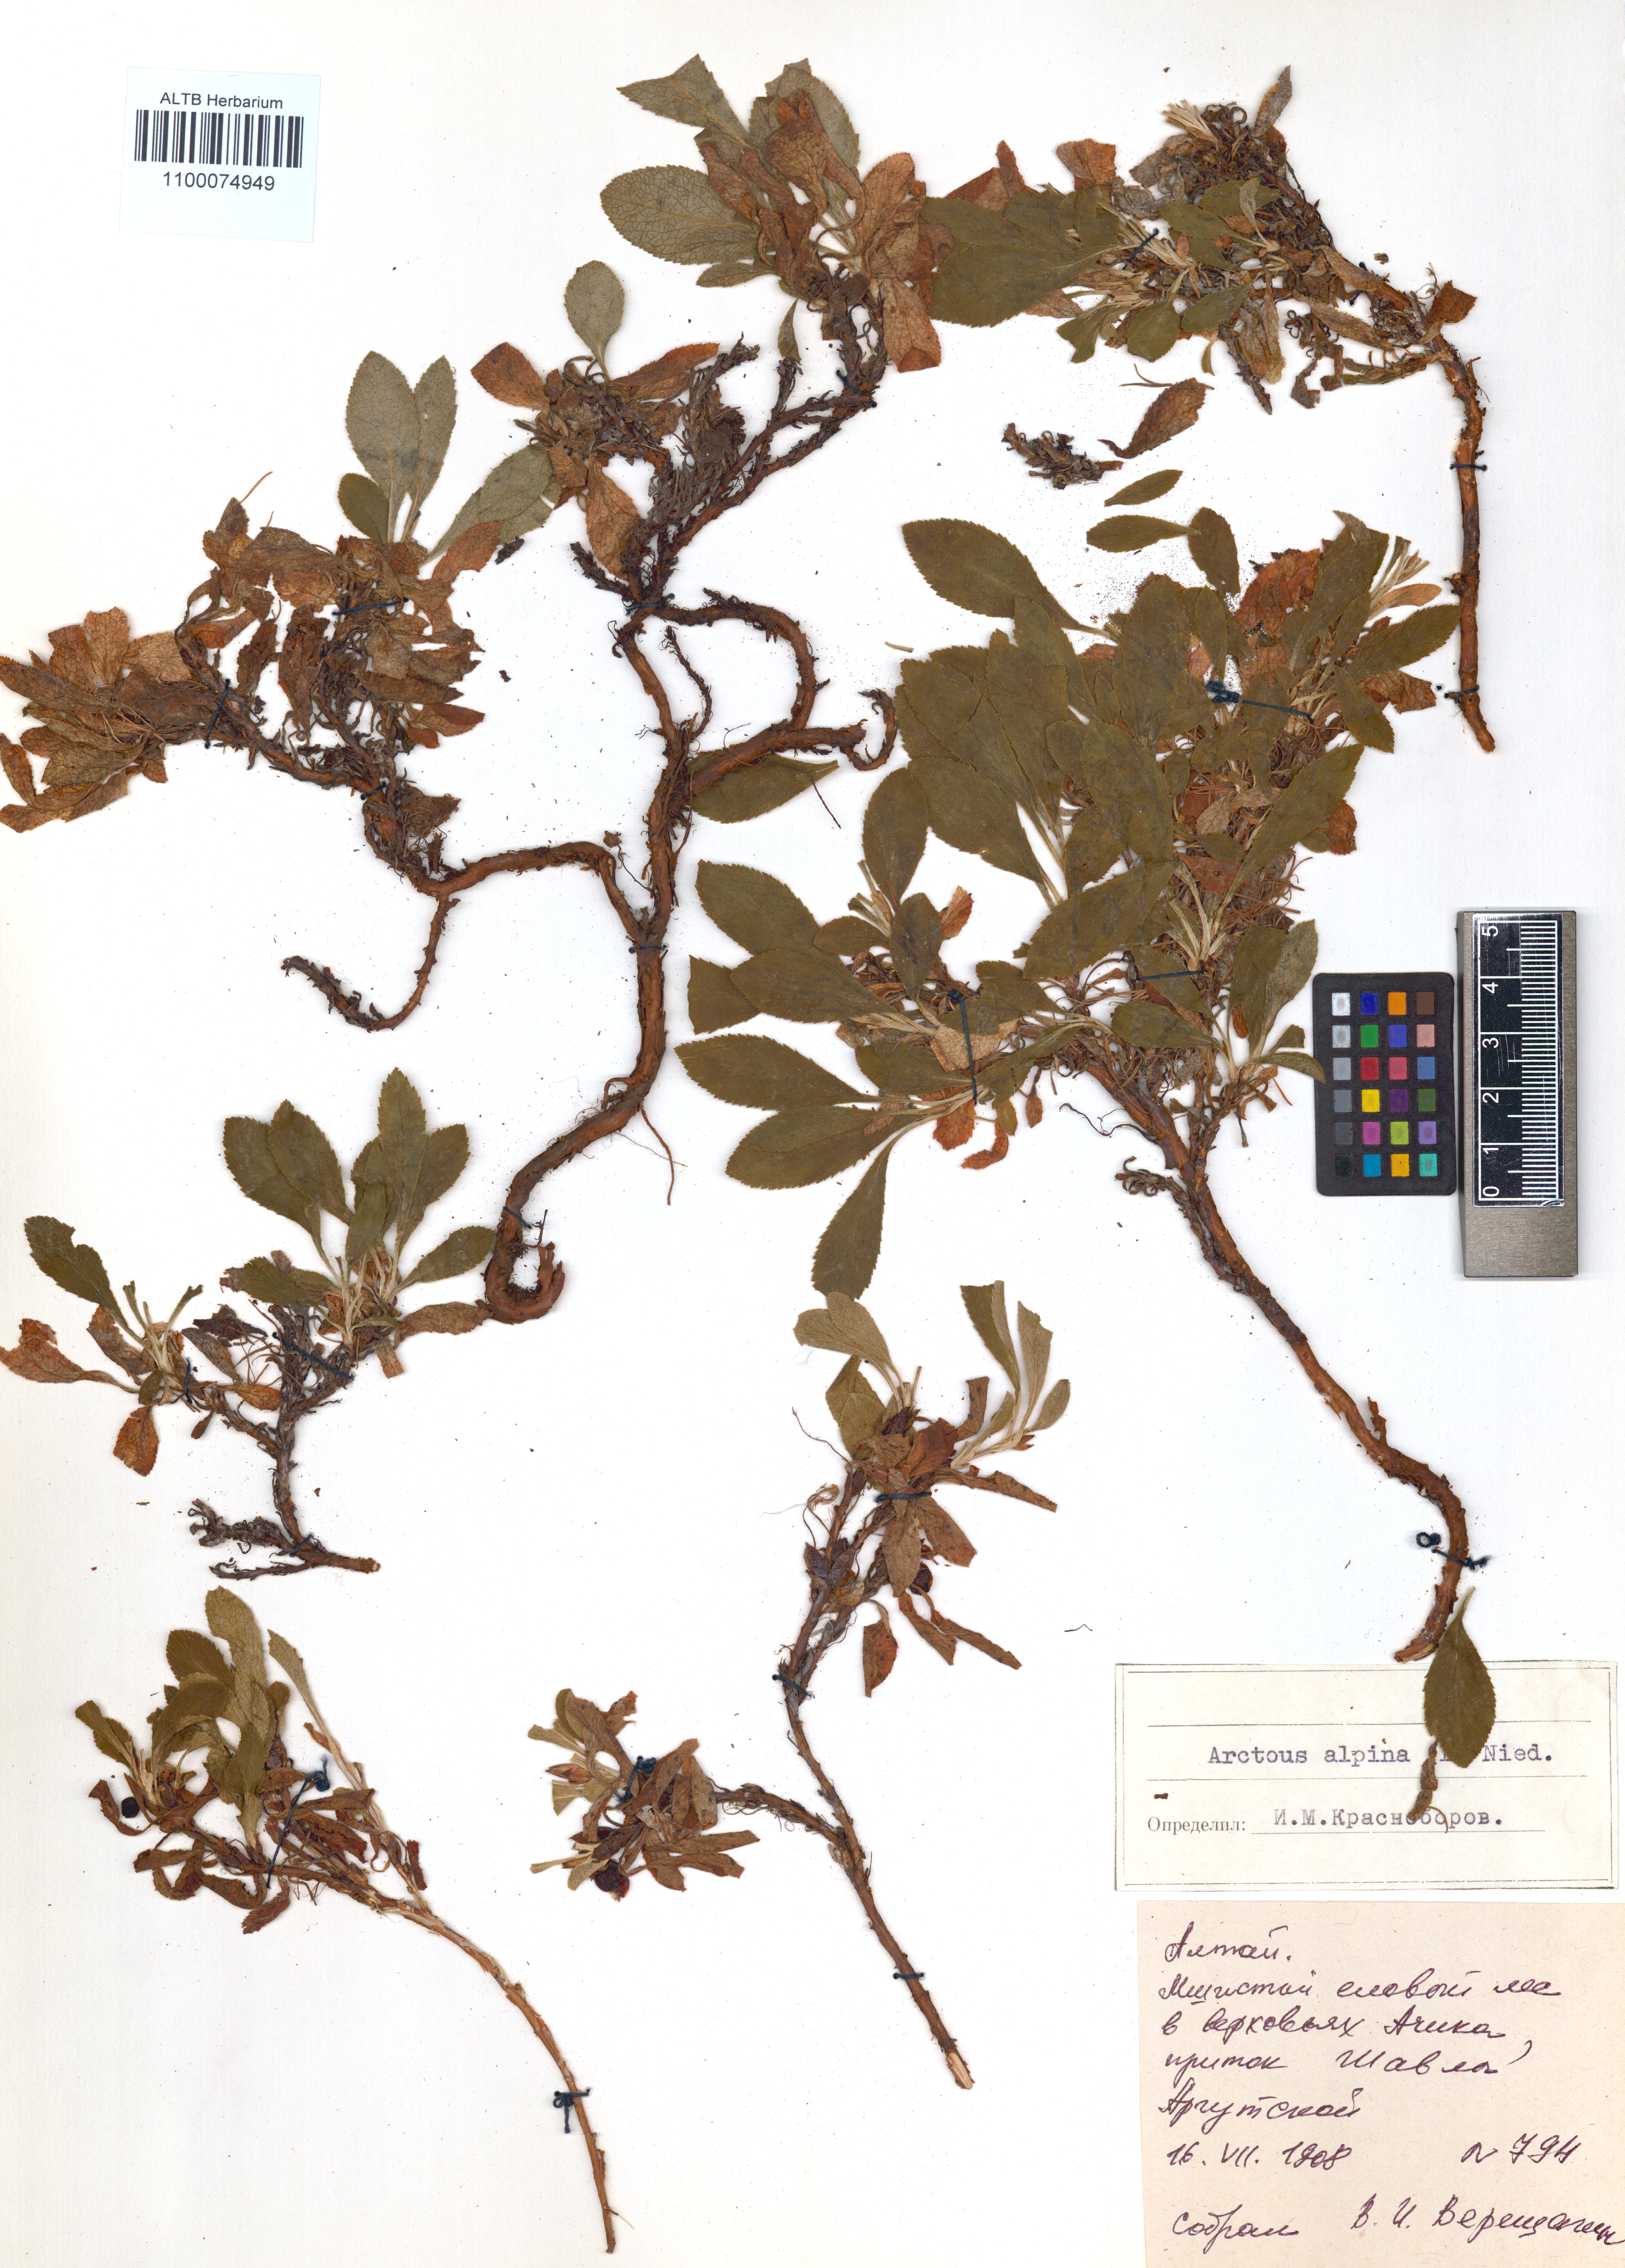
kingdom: Plantae
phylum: Tracheophyta
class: Magnoliopsida
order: Ericales
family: Ericaceae
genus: Arctostaphylos
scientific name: Arctostaphylos alpinus
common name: Alpine bearberry
